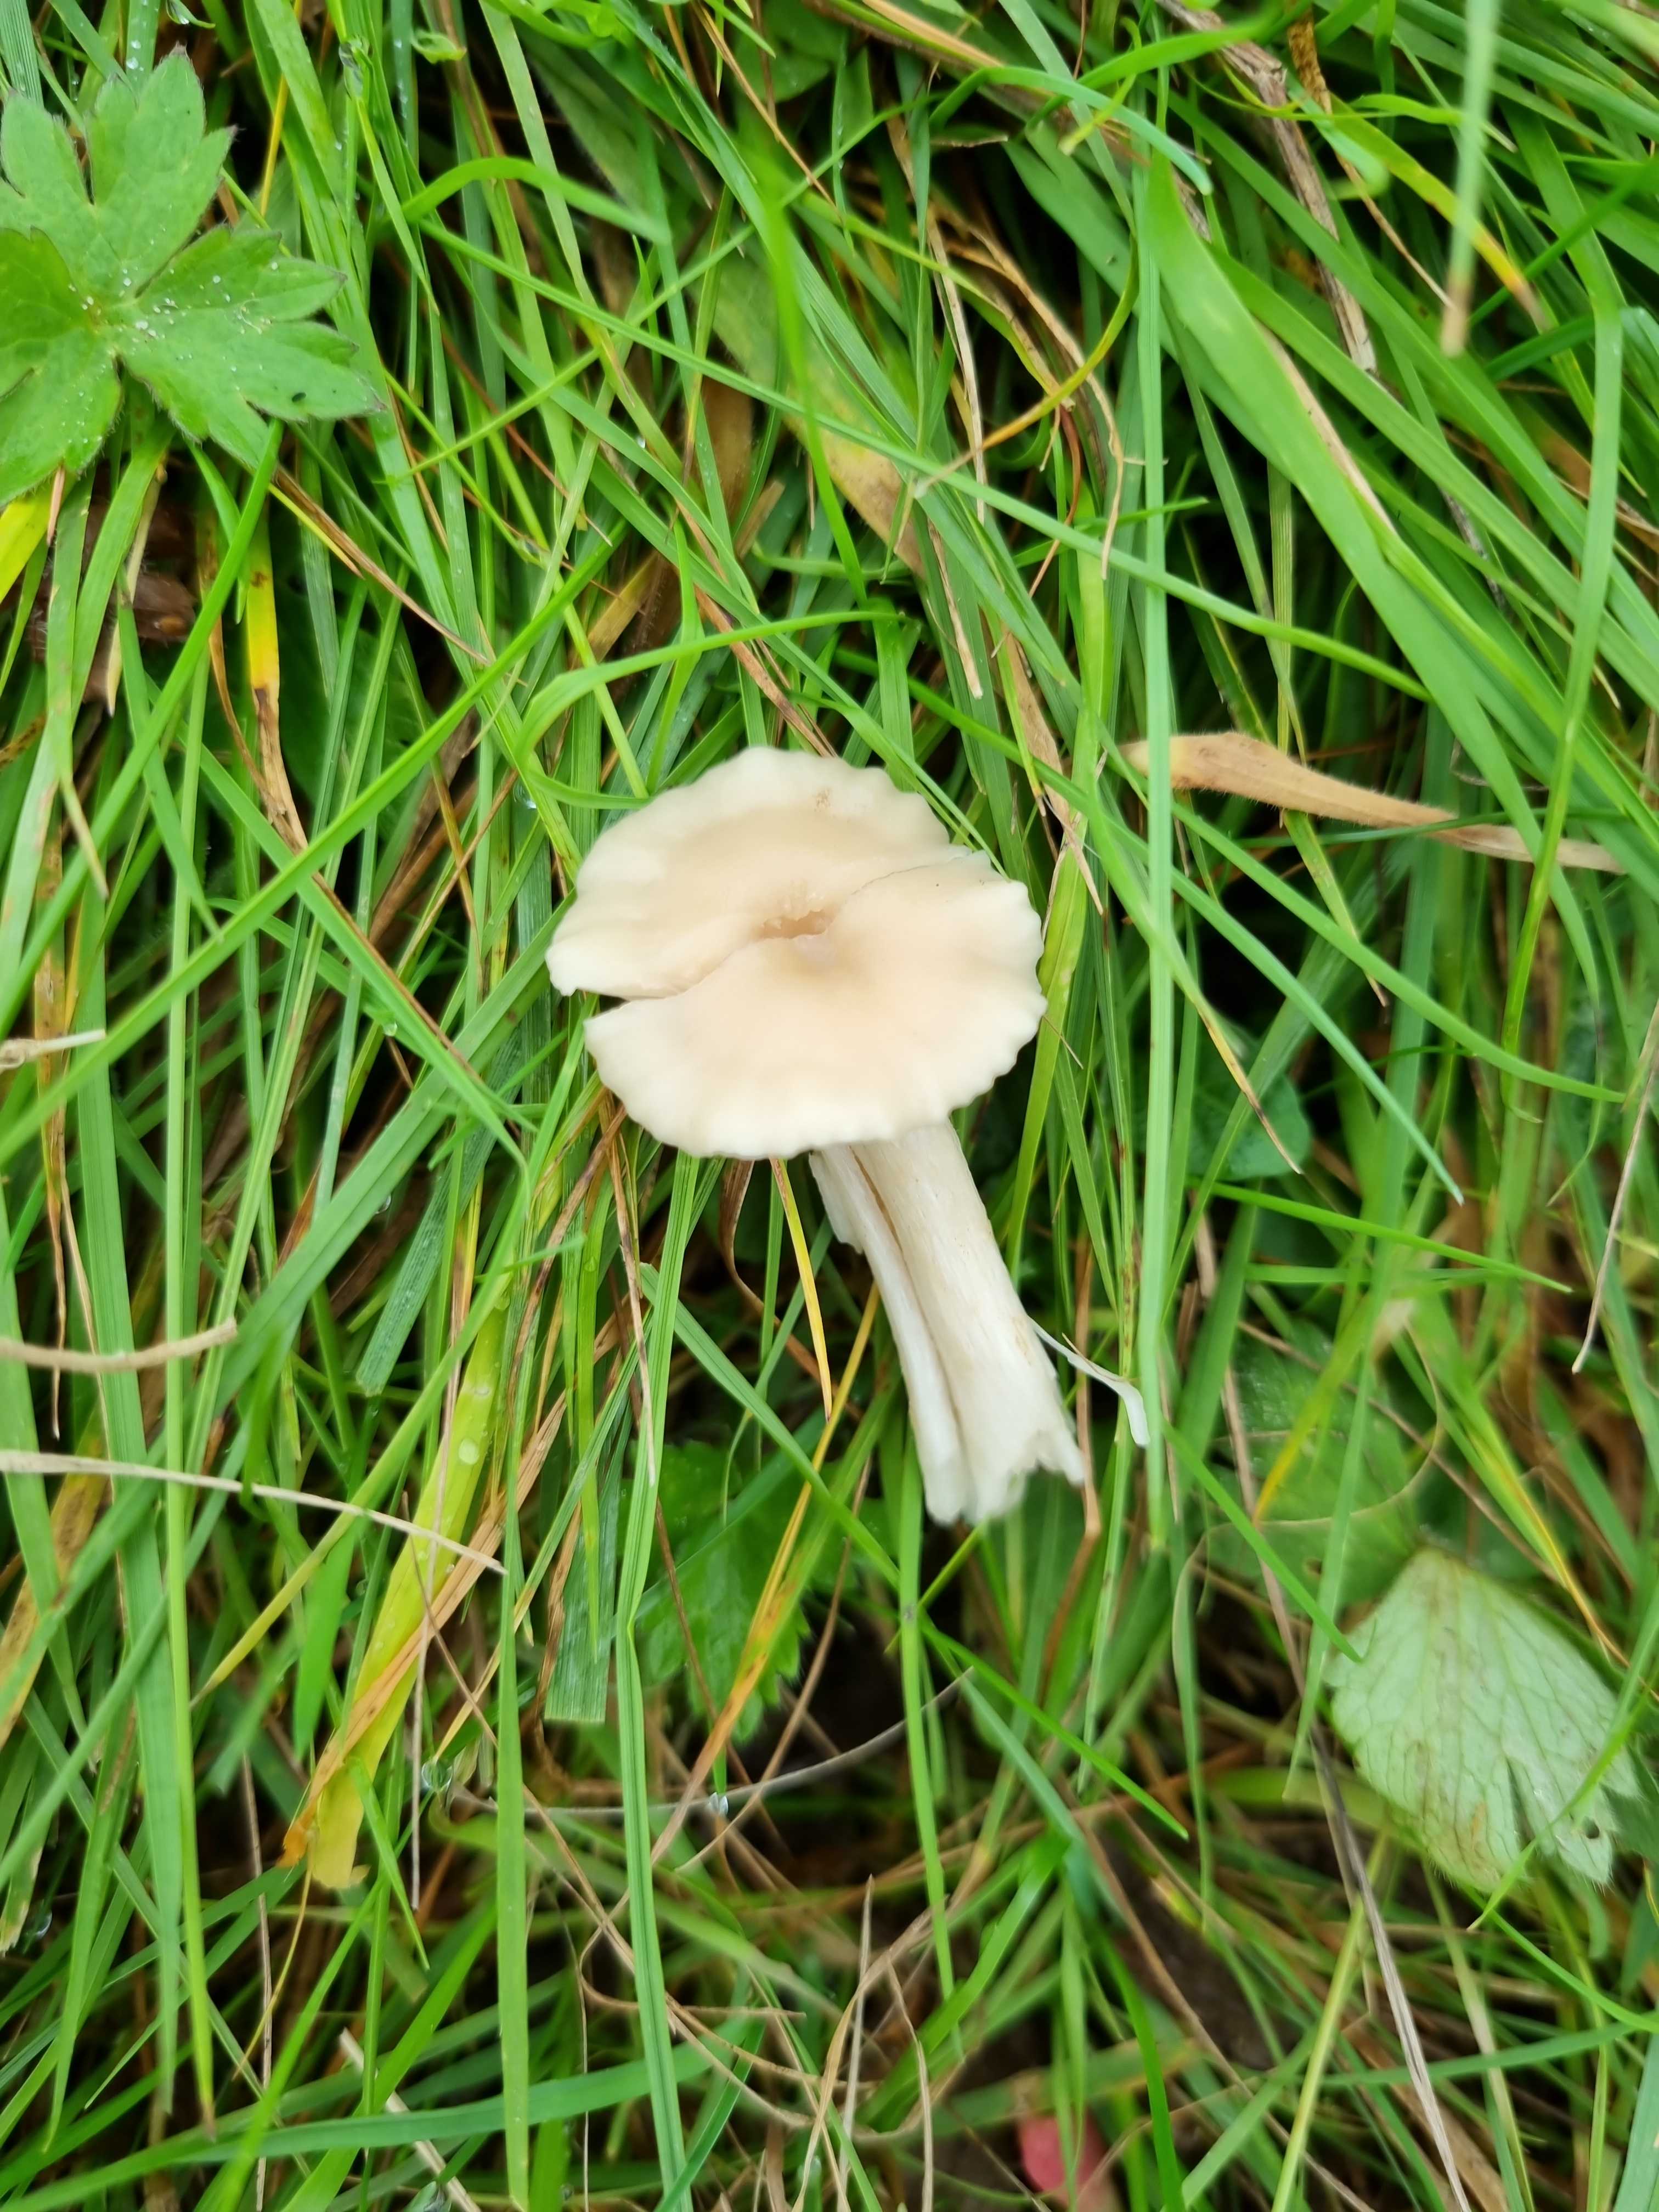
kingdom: Fungi
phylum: Basidiomycota
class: Agaricomycetes
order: Agaricales
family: Hygrophoraceae
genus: Cuphophyllus
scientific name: Cuphophyllus russocoriaceus
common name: ruslæder-vokshat
